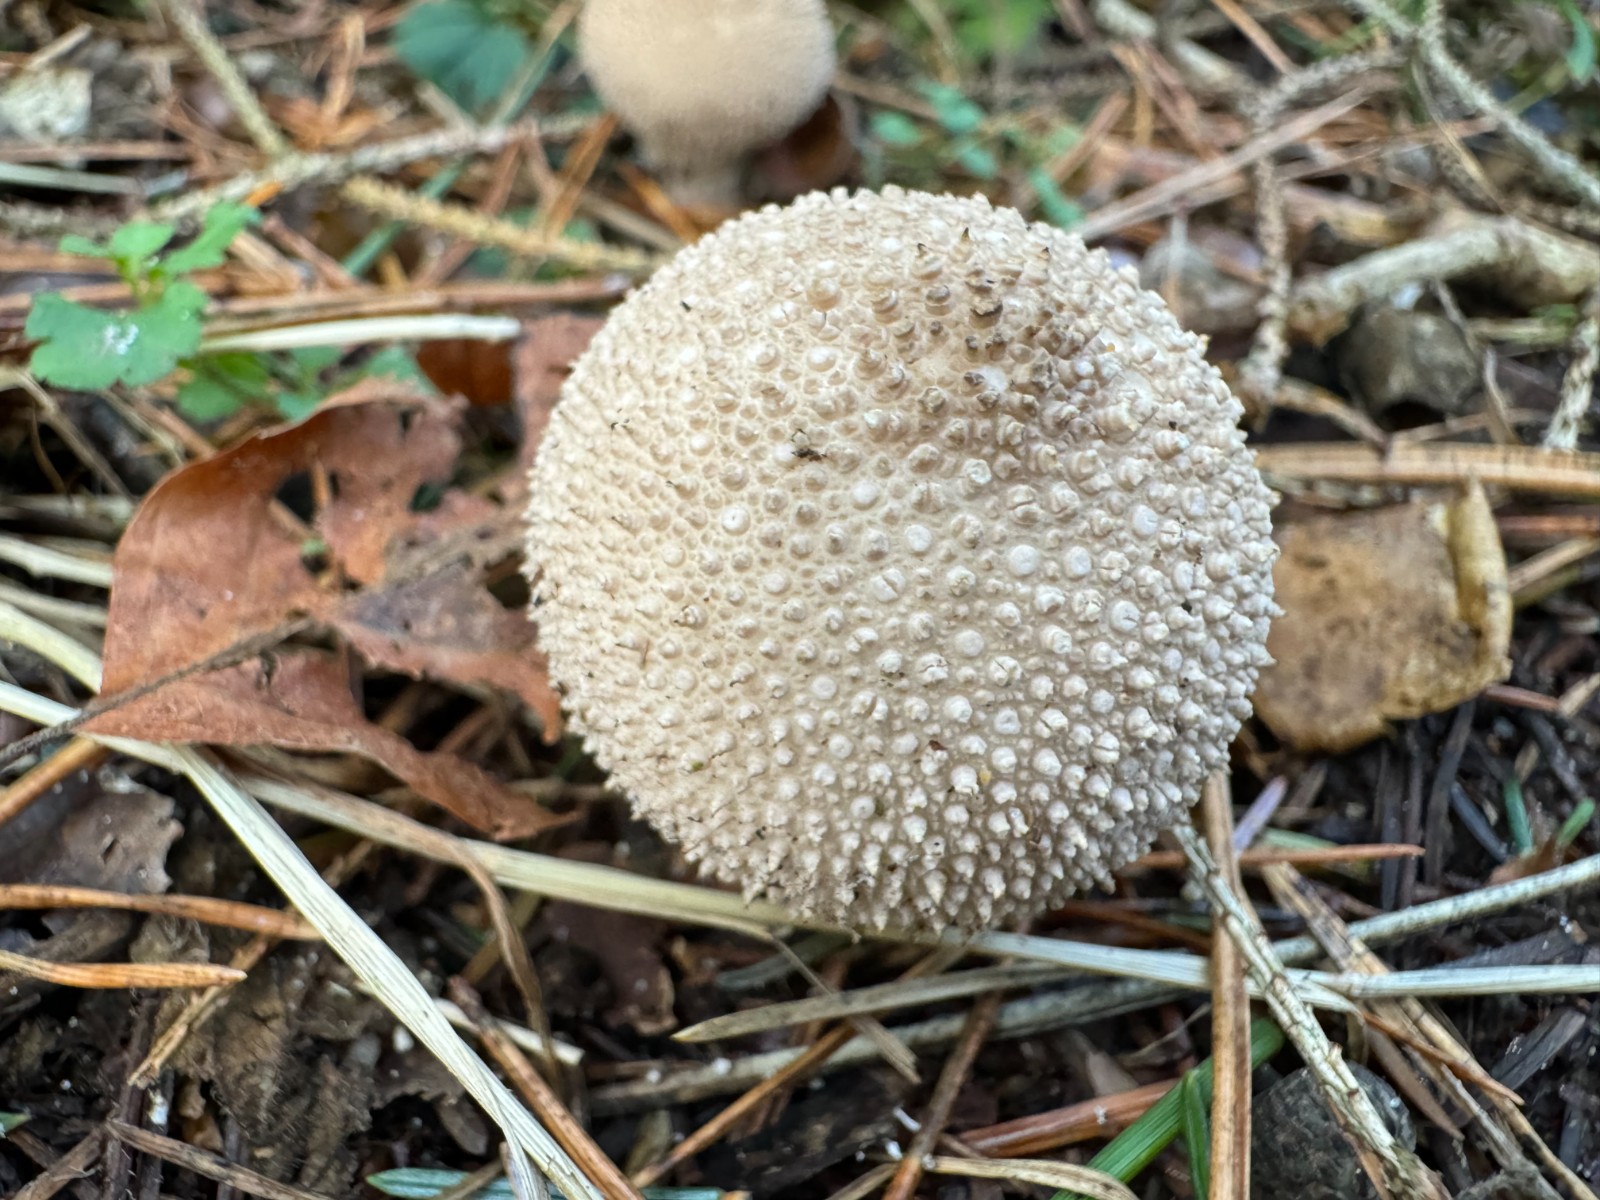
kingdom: Fungi
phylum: Basidiomycota
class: Agaricomycetes
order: Agaricales
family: Lycoperdaceae
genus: Lycoperdon
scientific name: Lycoperdon perlatum
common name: krystal-støvbold
